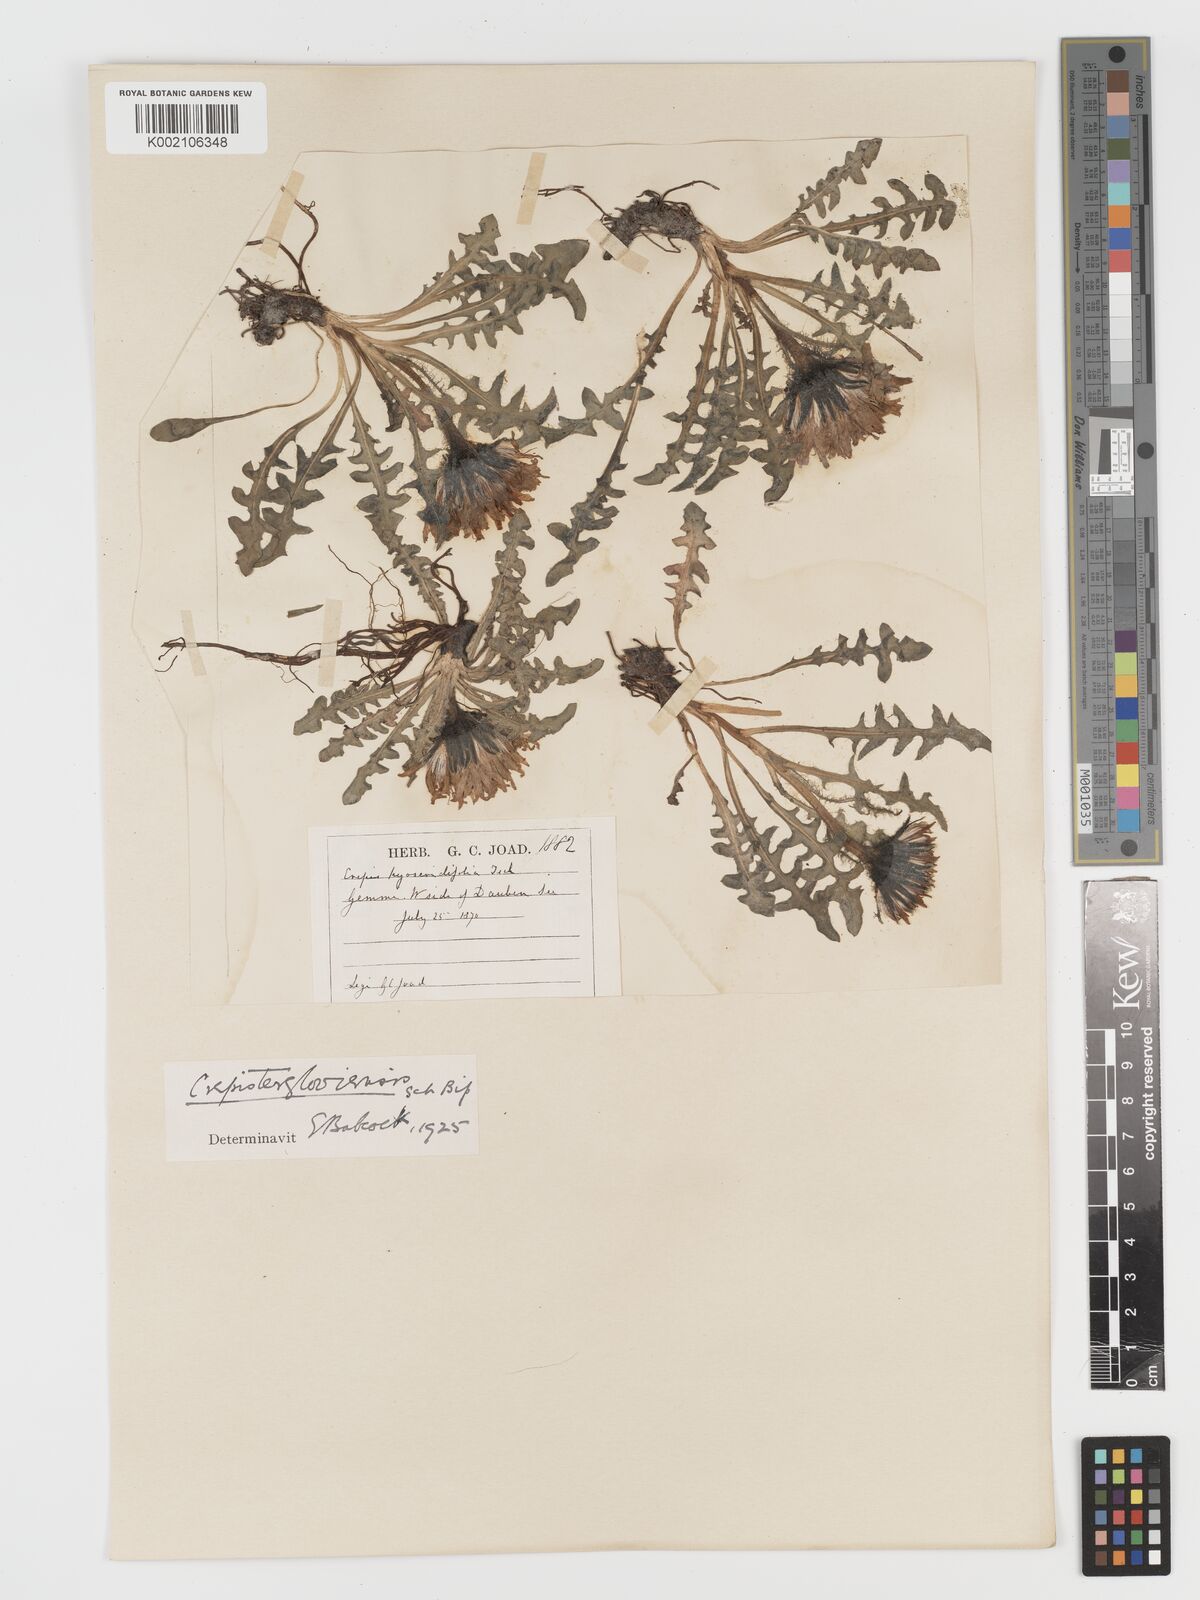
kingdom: Plantae
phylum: Tracheophyta
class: Magnoliopsida
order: Asterales
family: Asteraceae
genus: Crepis
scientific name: Crepis
